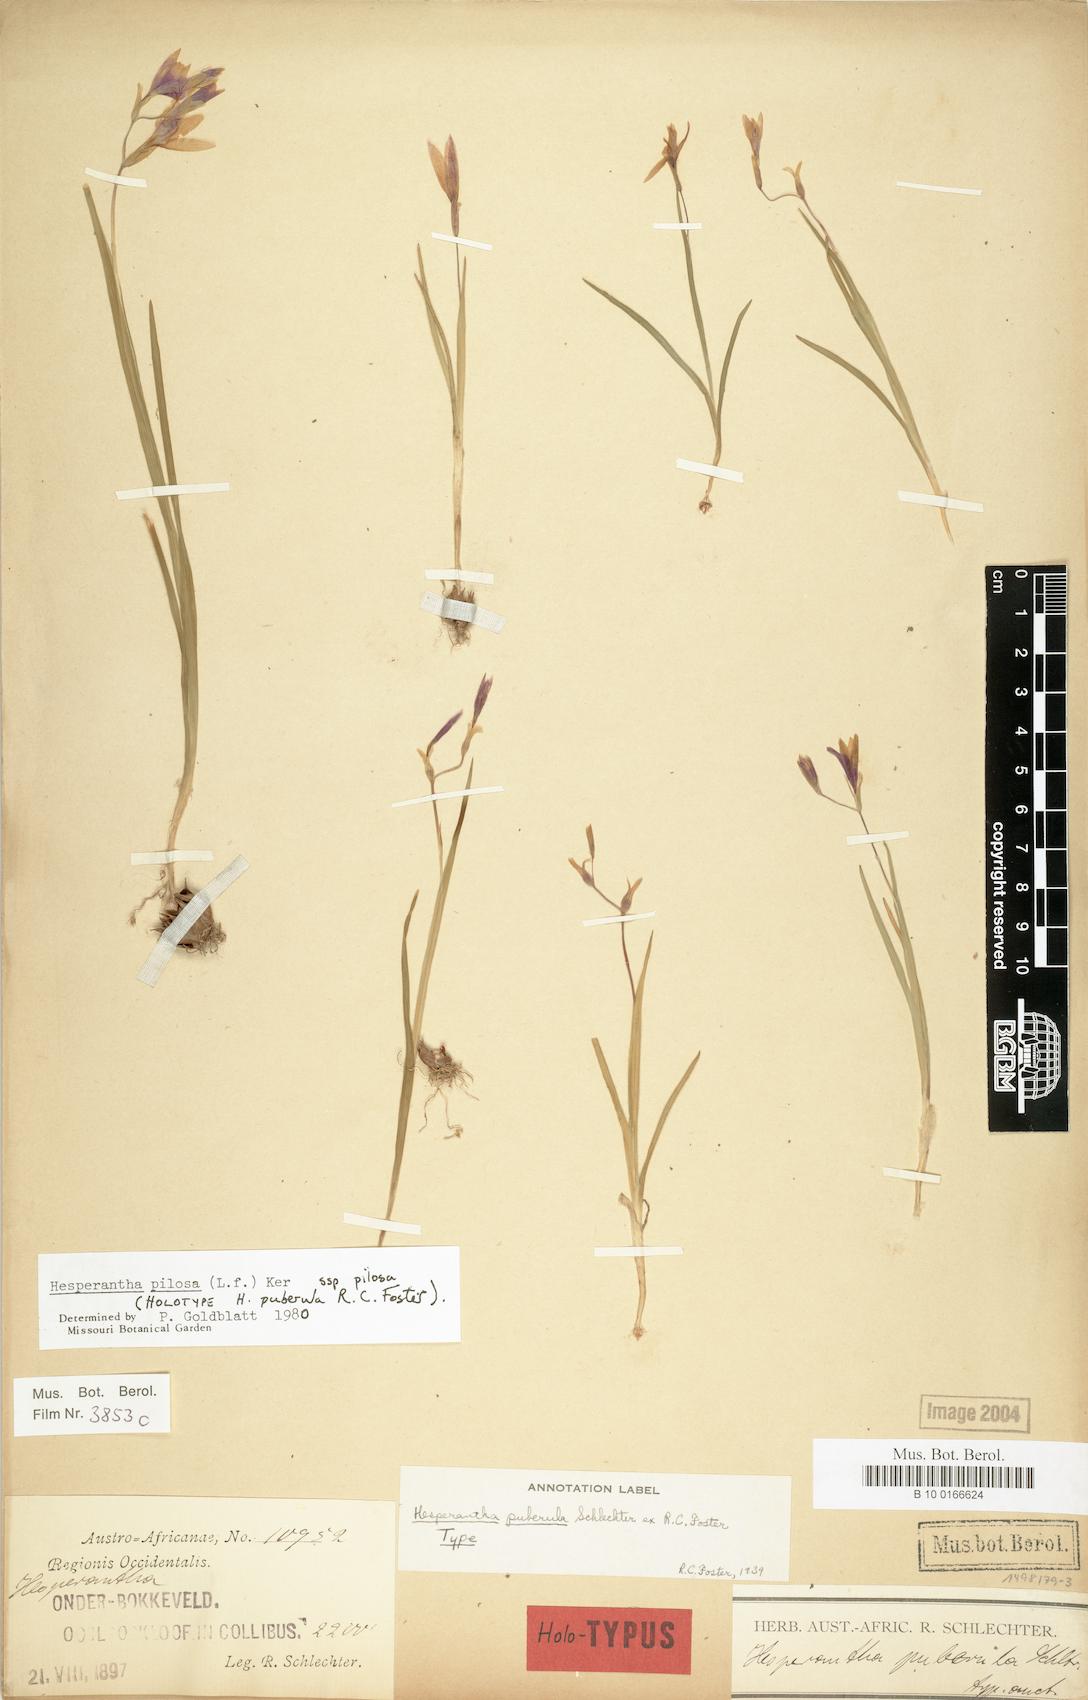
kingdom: Plantae
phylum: Tracheophyta
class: Liliopsida
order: Asparagales
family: Iridaceae
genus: Hesperantha
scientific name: Hesperantha pilosa
